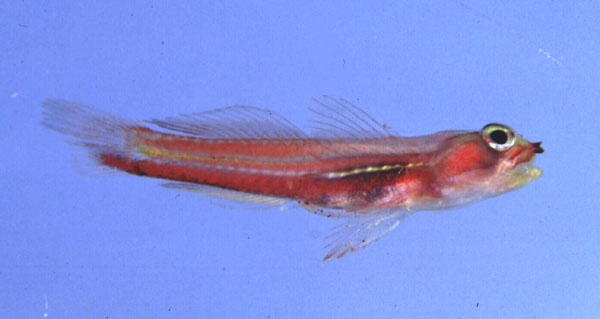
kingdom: Animalia
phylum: Chordata
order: Perciformes
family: Gobiidae
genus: Eviota
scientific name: Eviota
